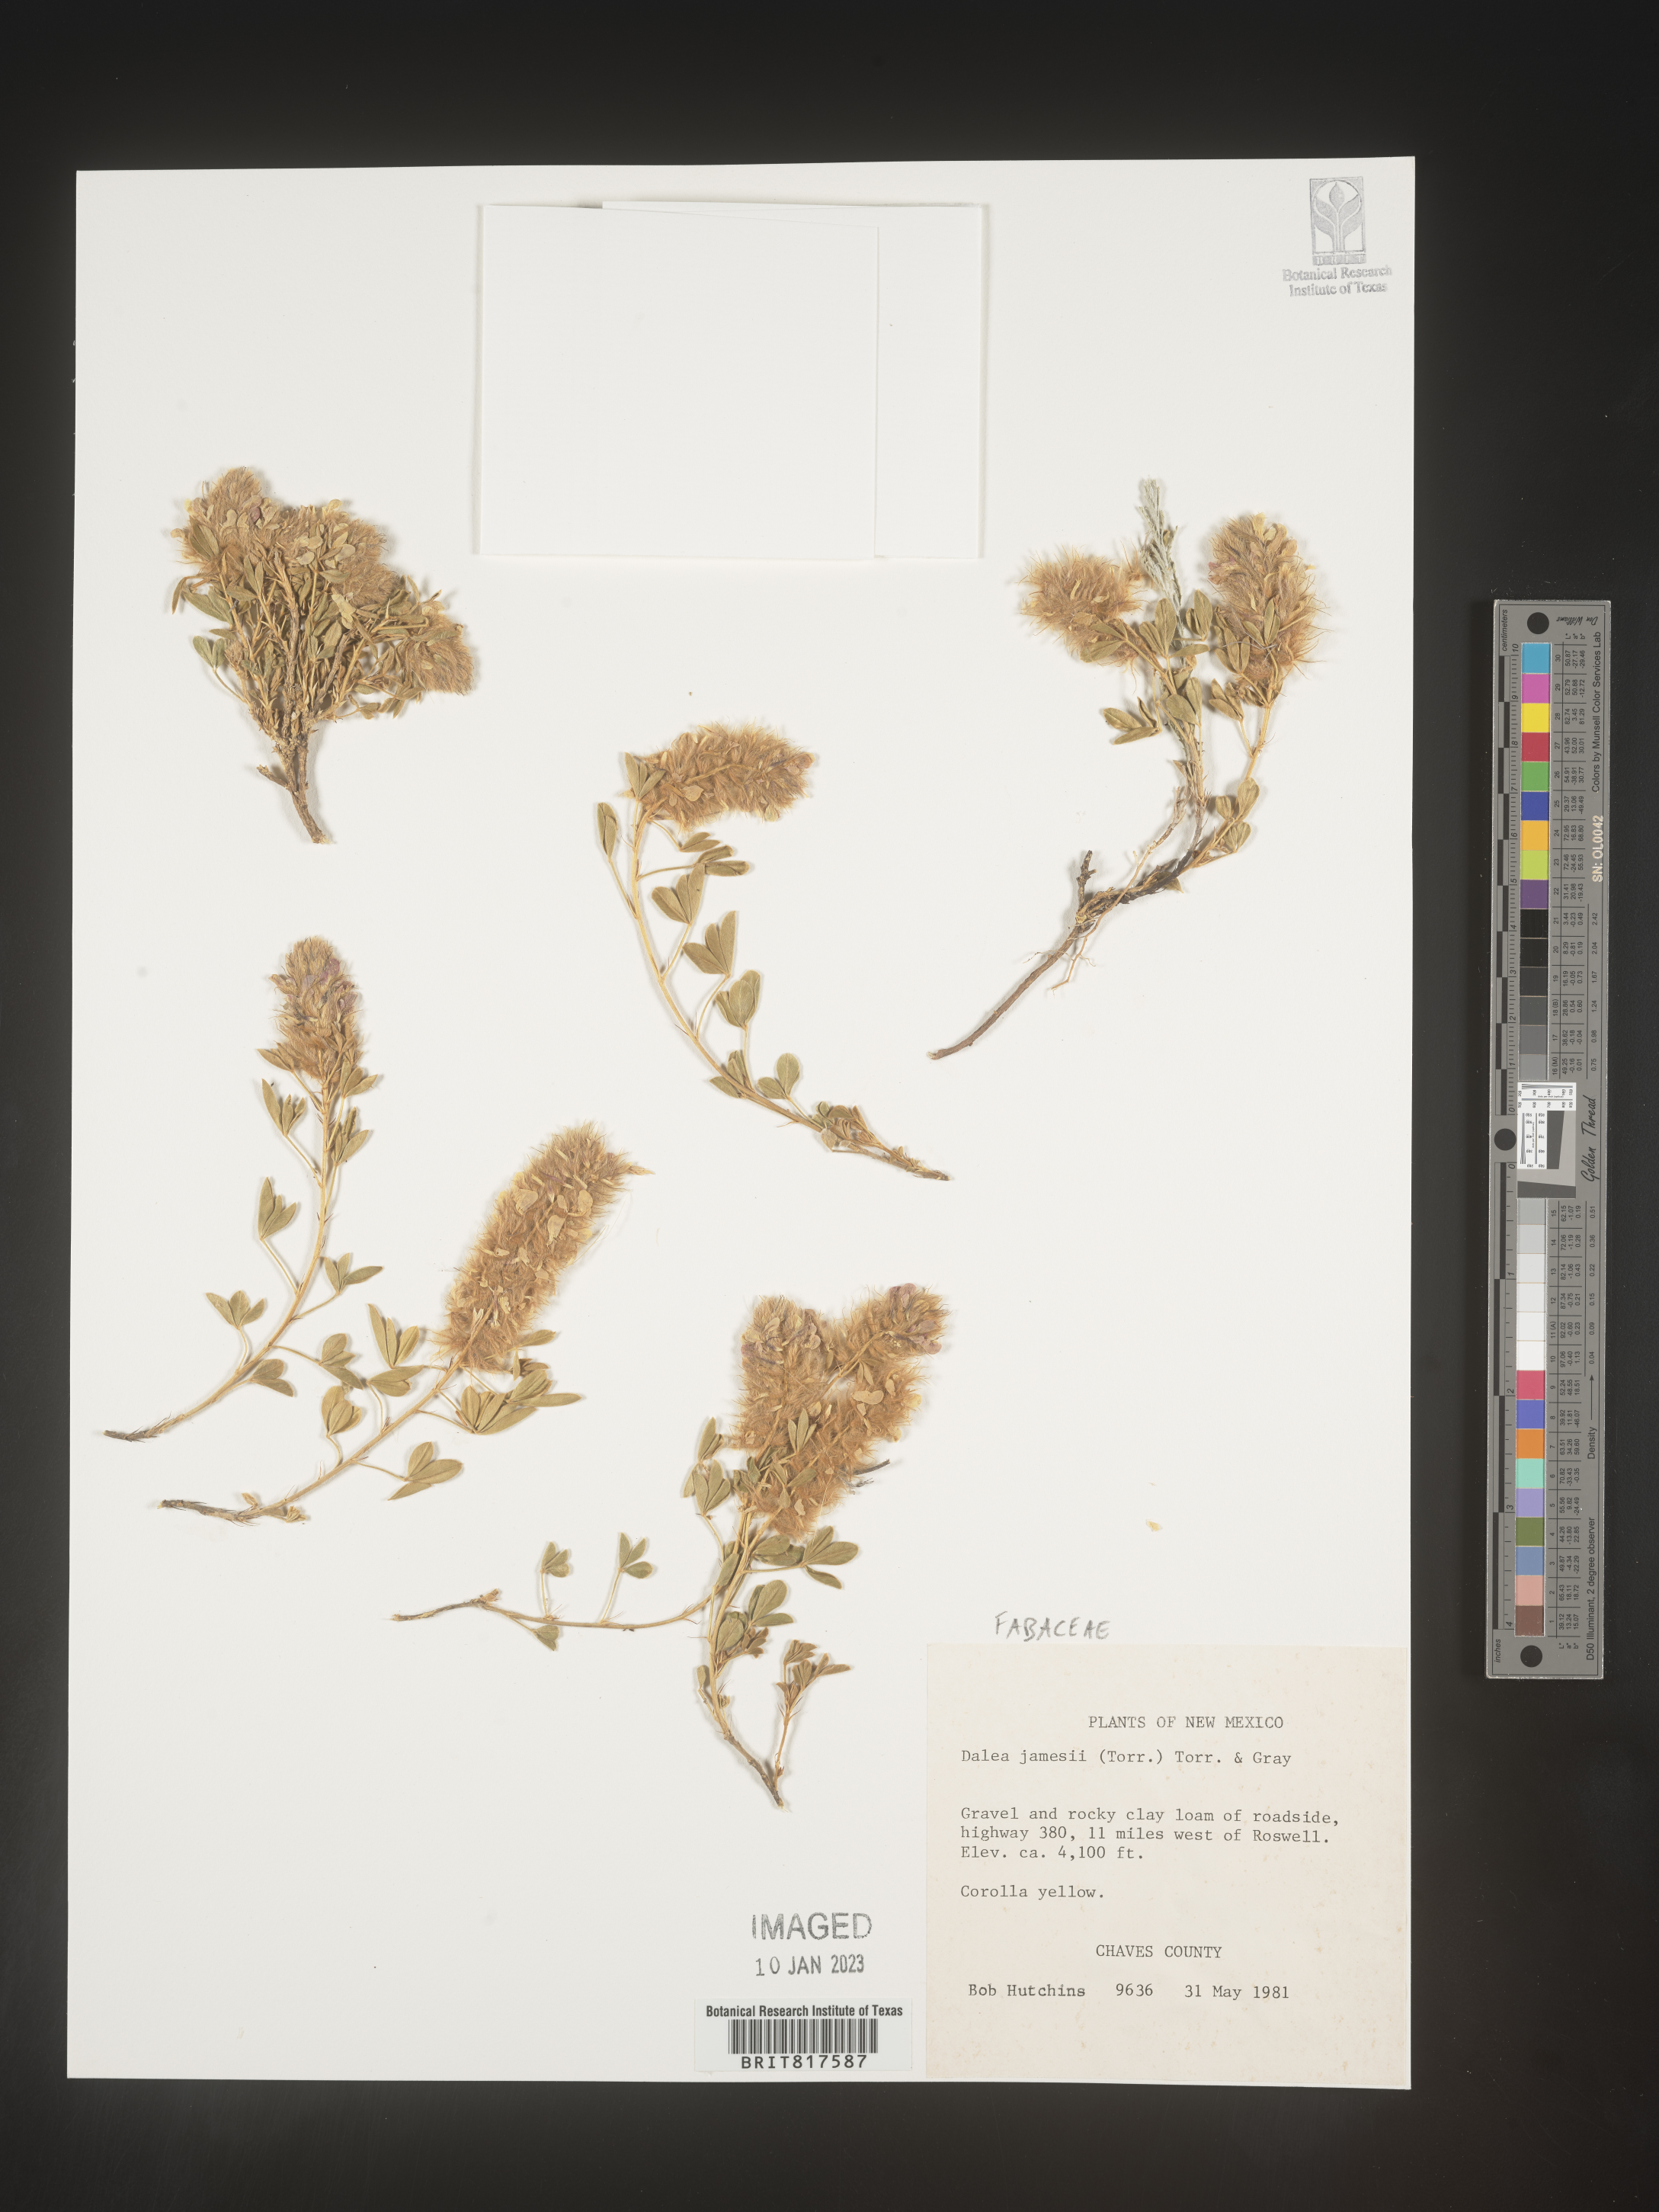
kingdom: Plantae
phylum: Tracheophyta
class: Magnoliopsida
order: Fabales
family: Fabaceae
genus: Dalea
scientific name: Dalea jamesii
